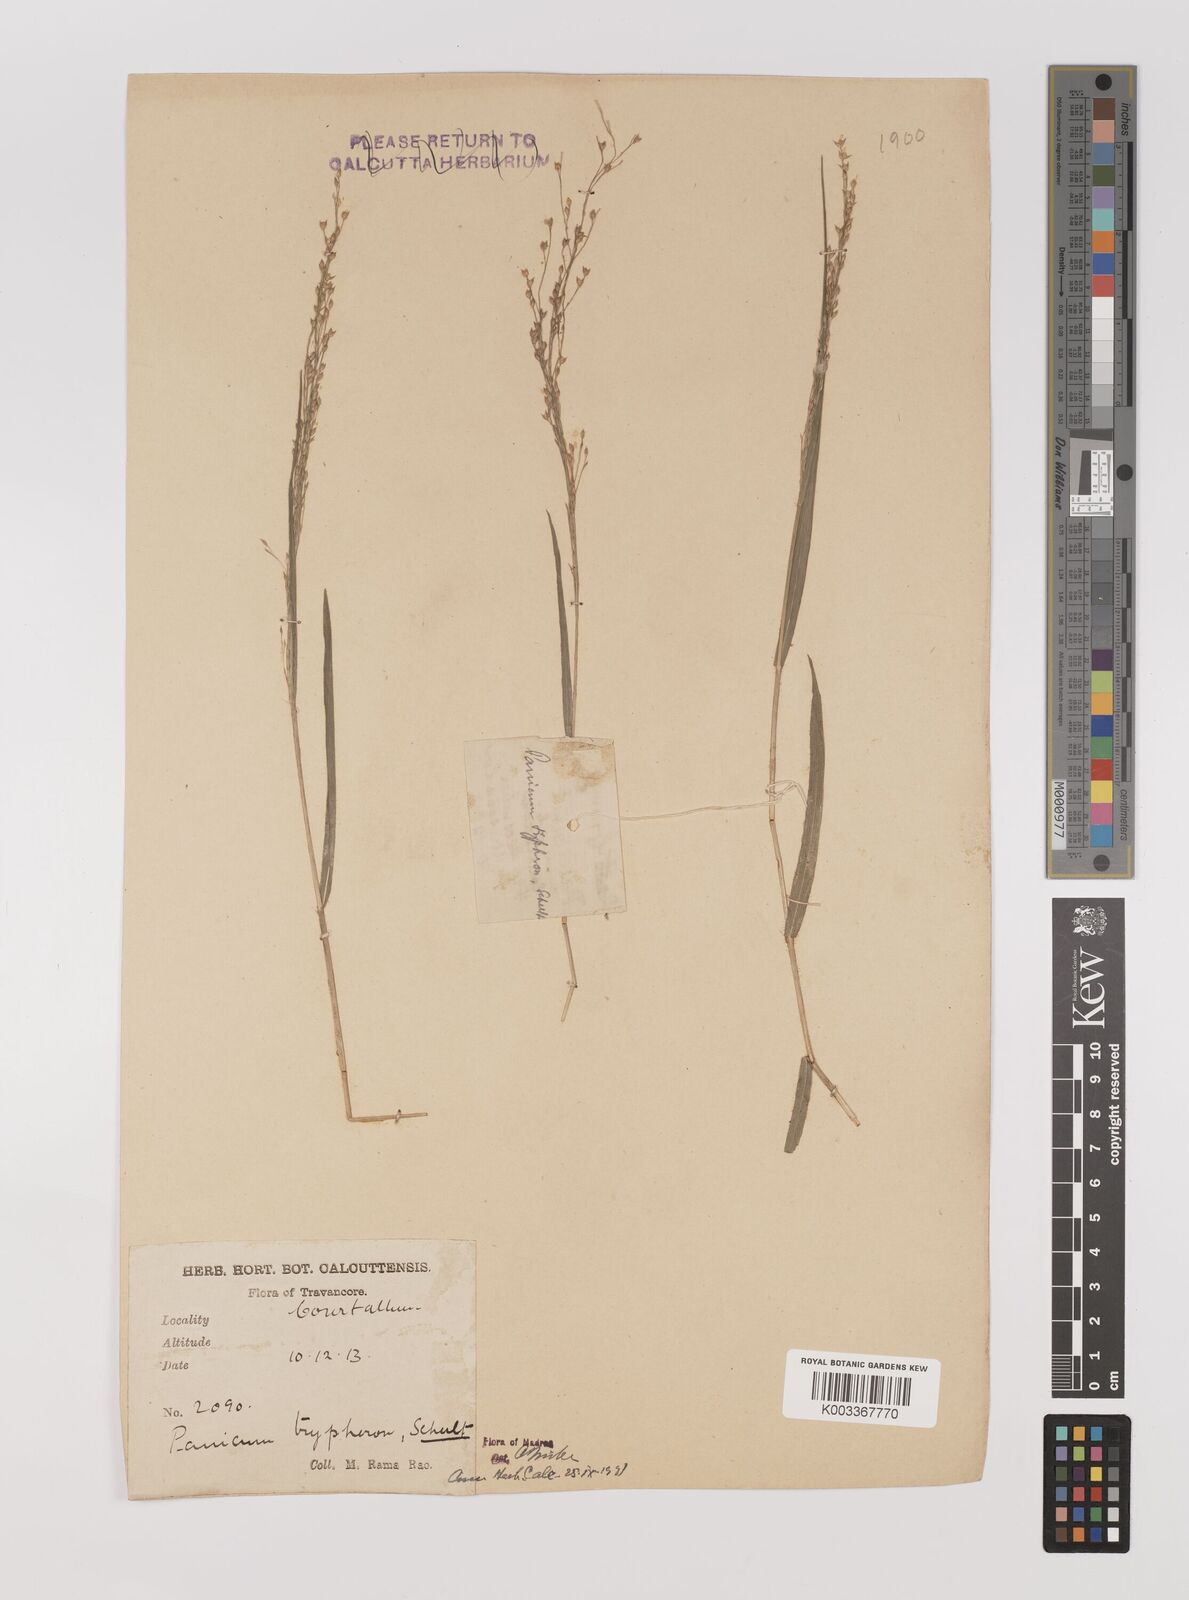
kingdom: Plantae
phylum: Tracheophyta
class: Liliopsida
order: Poales
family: Poaceae
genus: Panicum
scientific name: Panicum curviflorum
